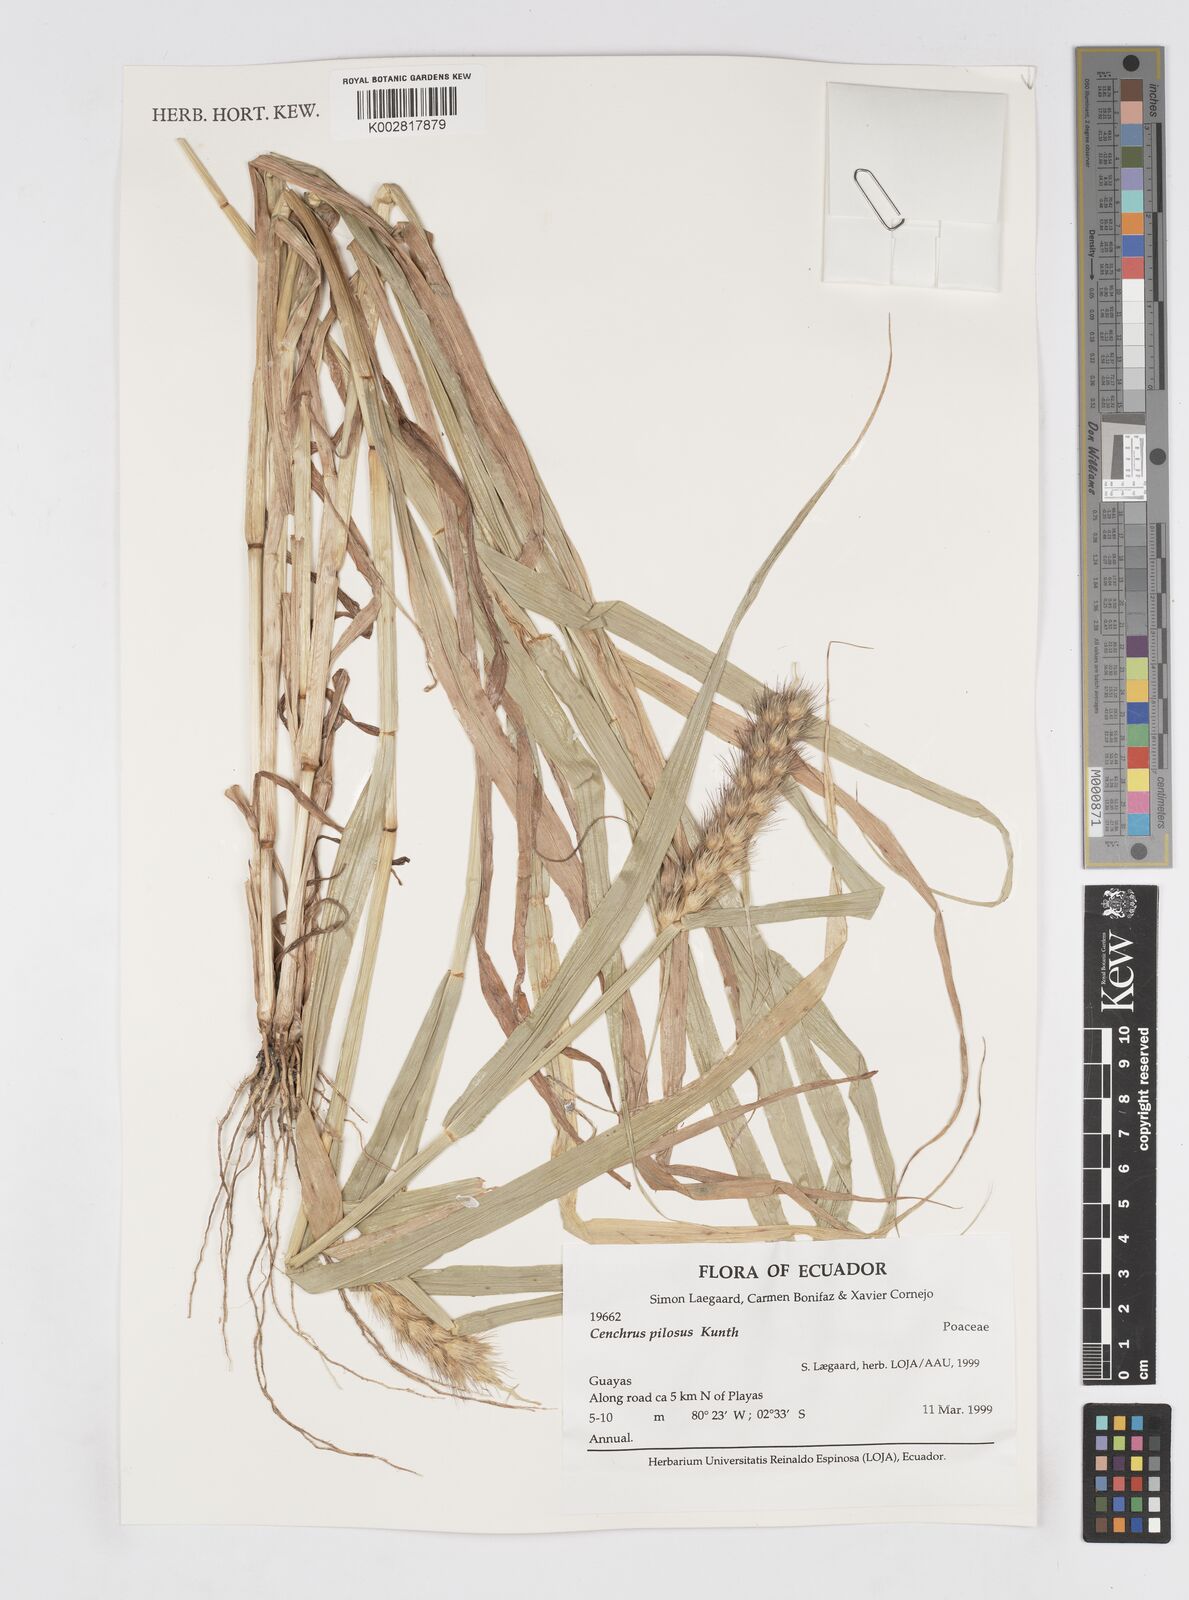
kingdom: Plantae
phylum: Tracheophyta
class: Liliopsida
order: Poales
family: Poaceae
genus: Cenchrus
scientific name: Cenchrus pilosus
